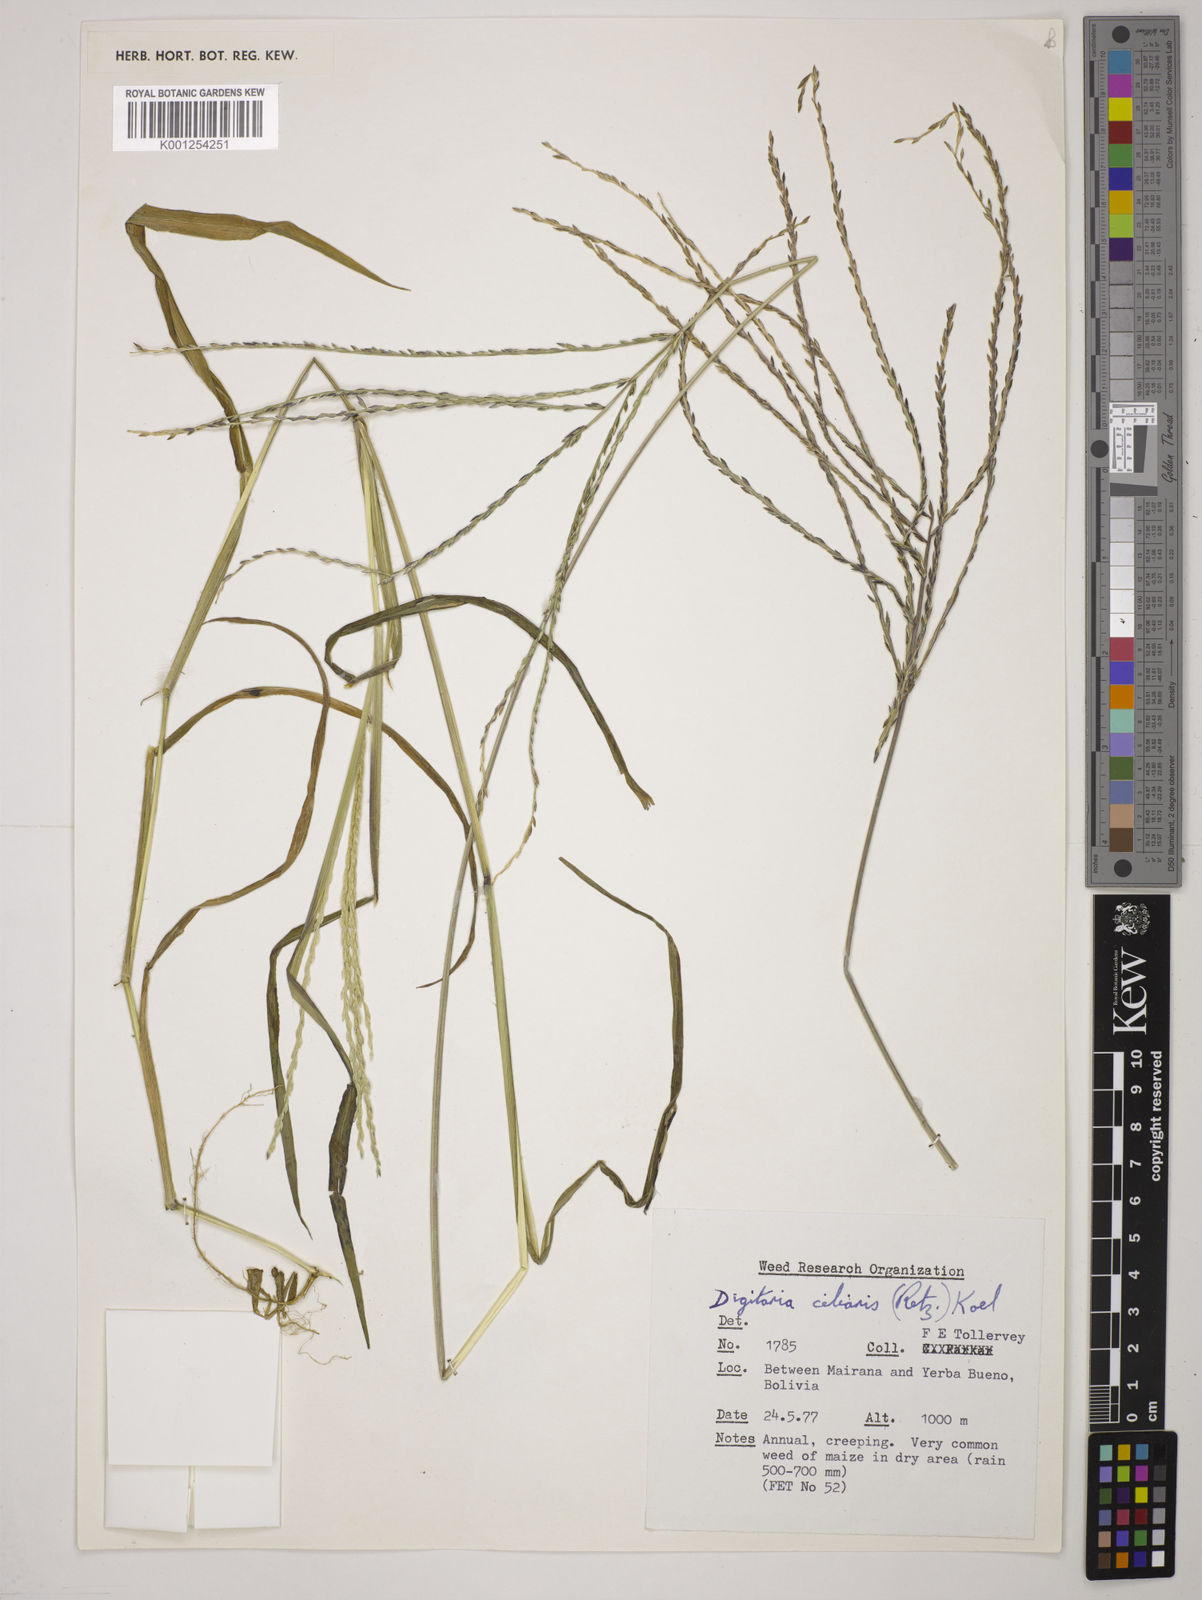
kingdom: Plantae
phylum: Tracheophyta
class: Liliopsida
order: Poales
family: Poaceae
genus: Digitaria
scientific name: Digitaria
